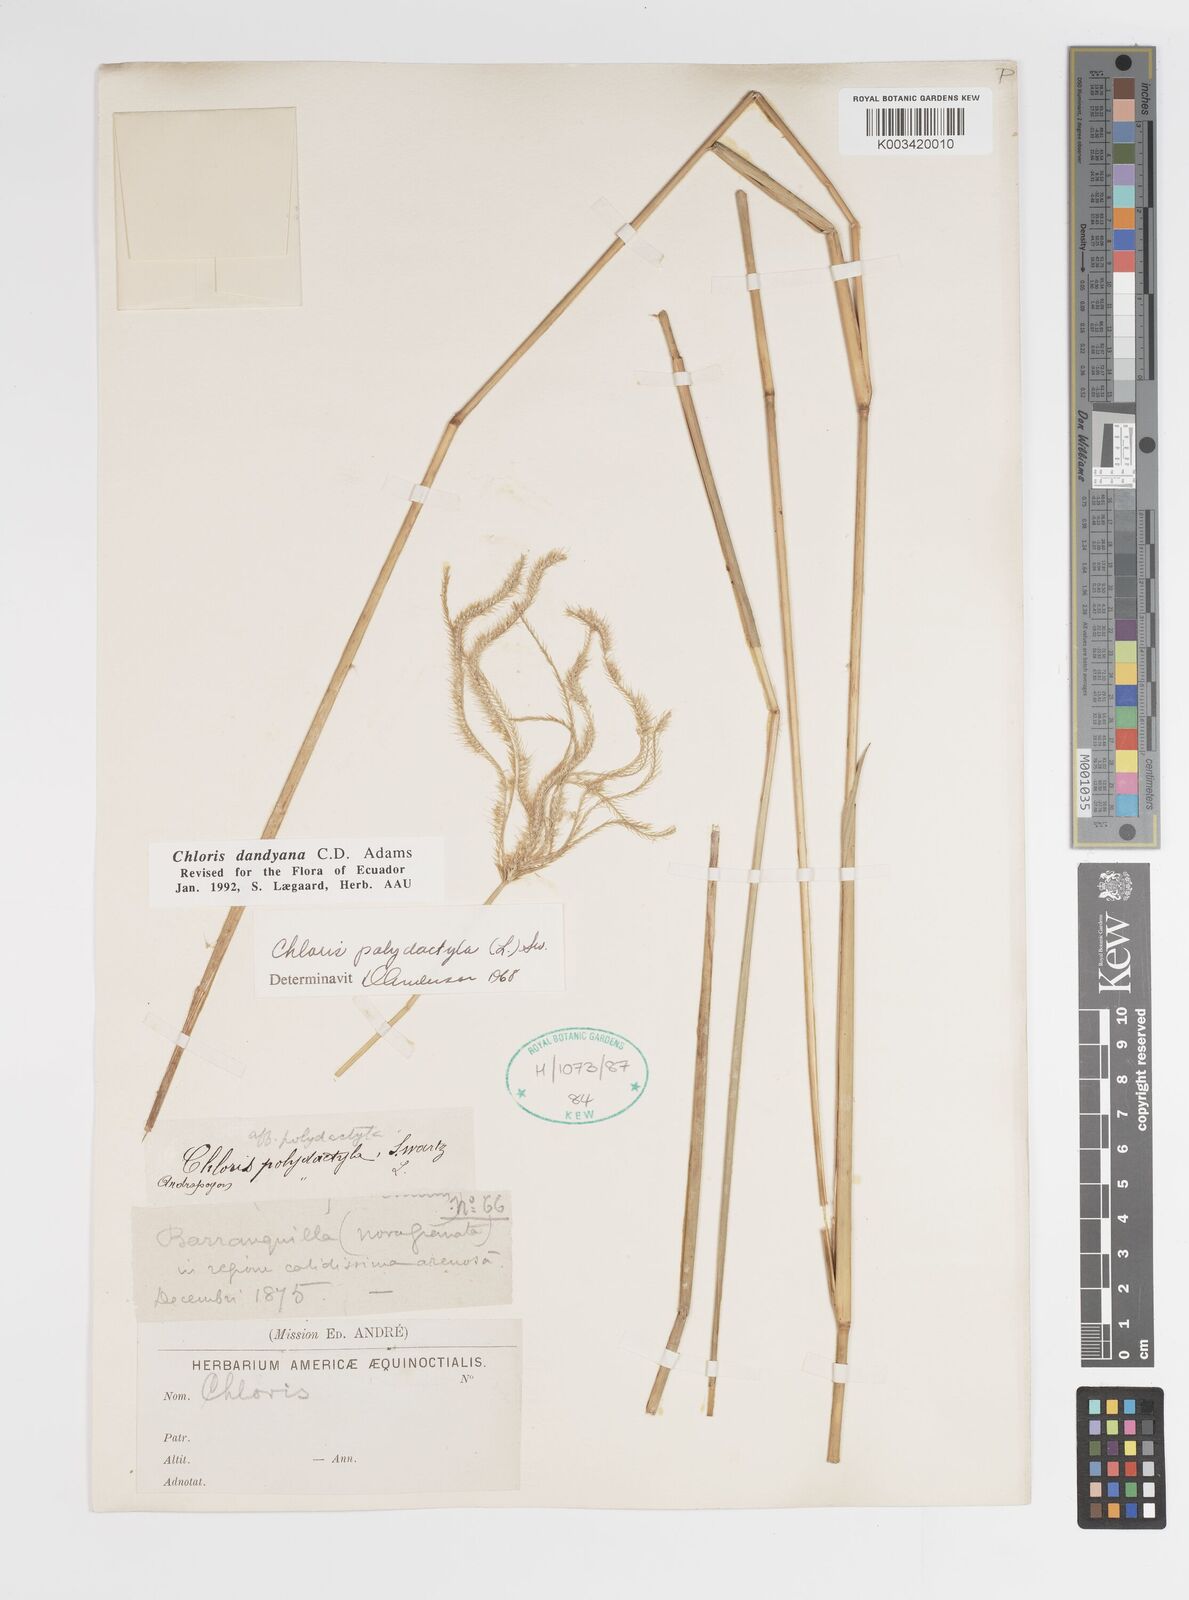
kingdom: Plantae
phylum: Tracheophyta
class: Liliopsida
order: Poales
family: Poaceae
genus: Stapfochloa
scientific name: Stapfochloa elata
